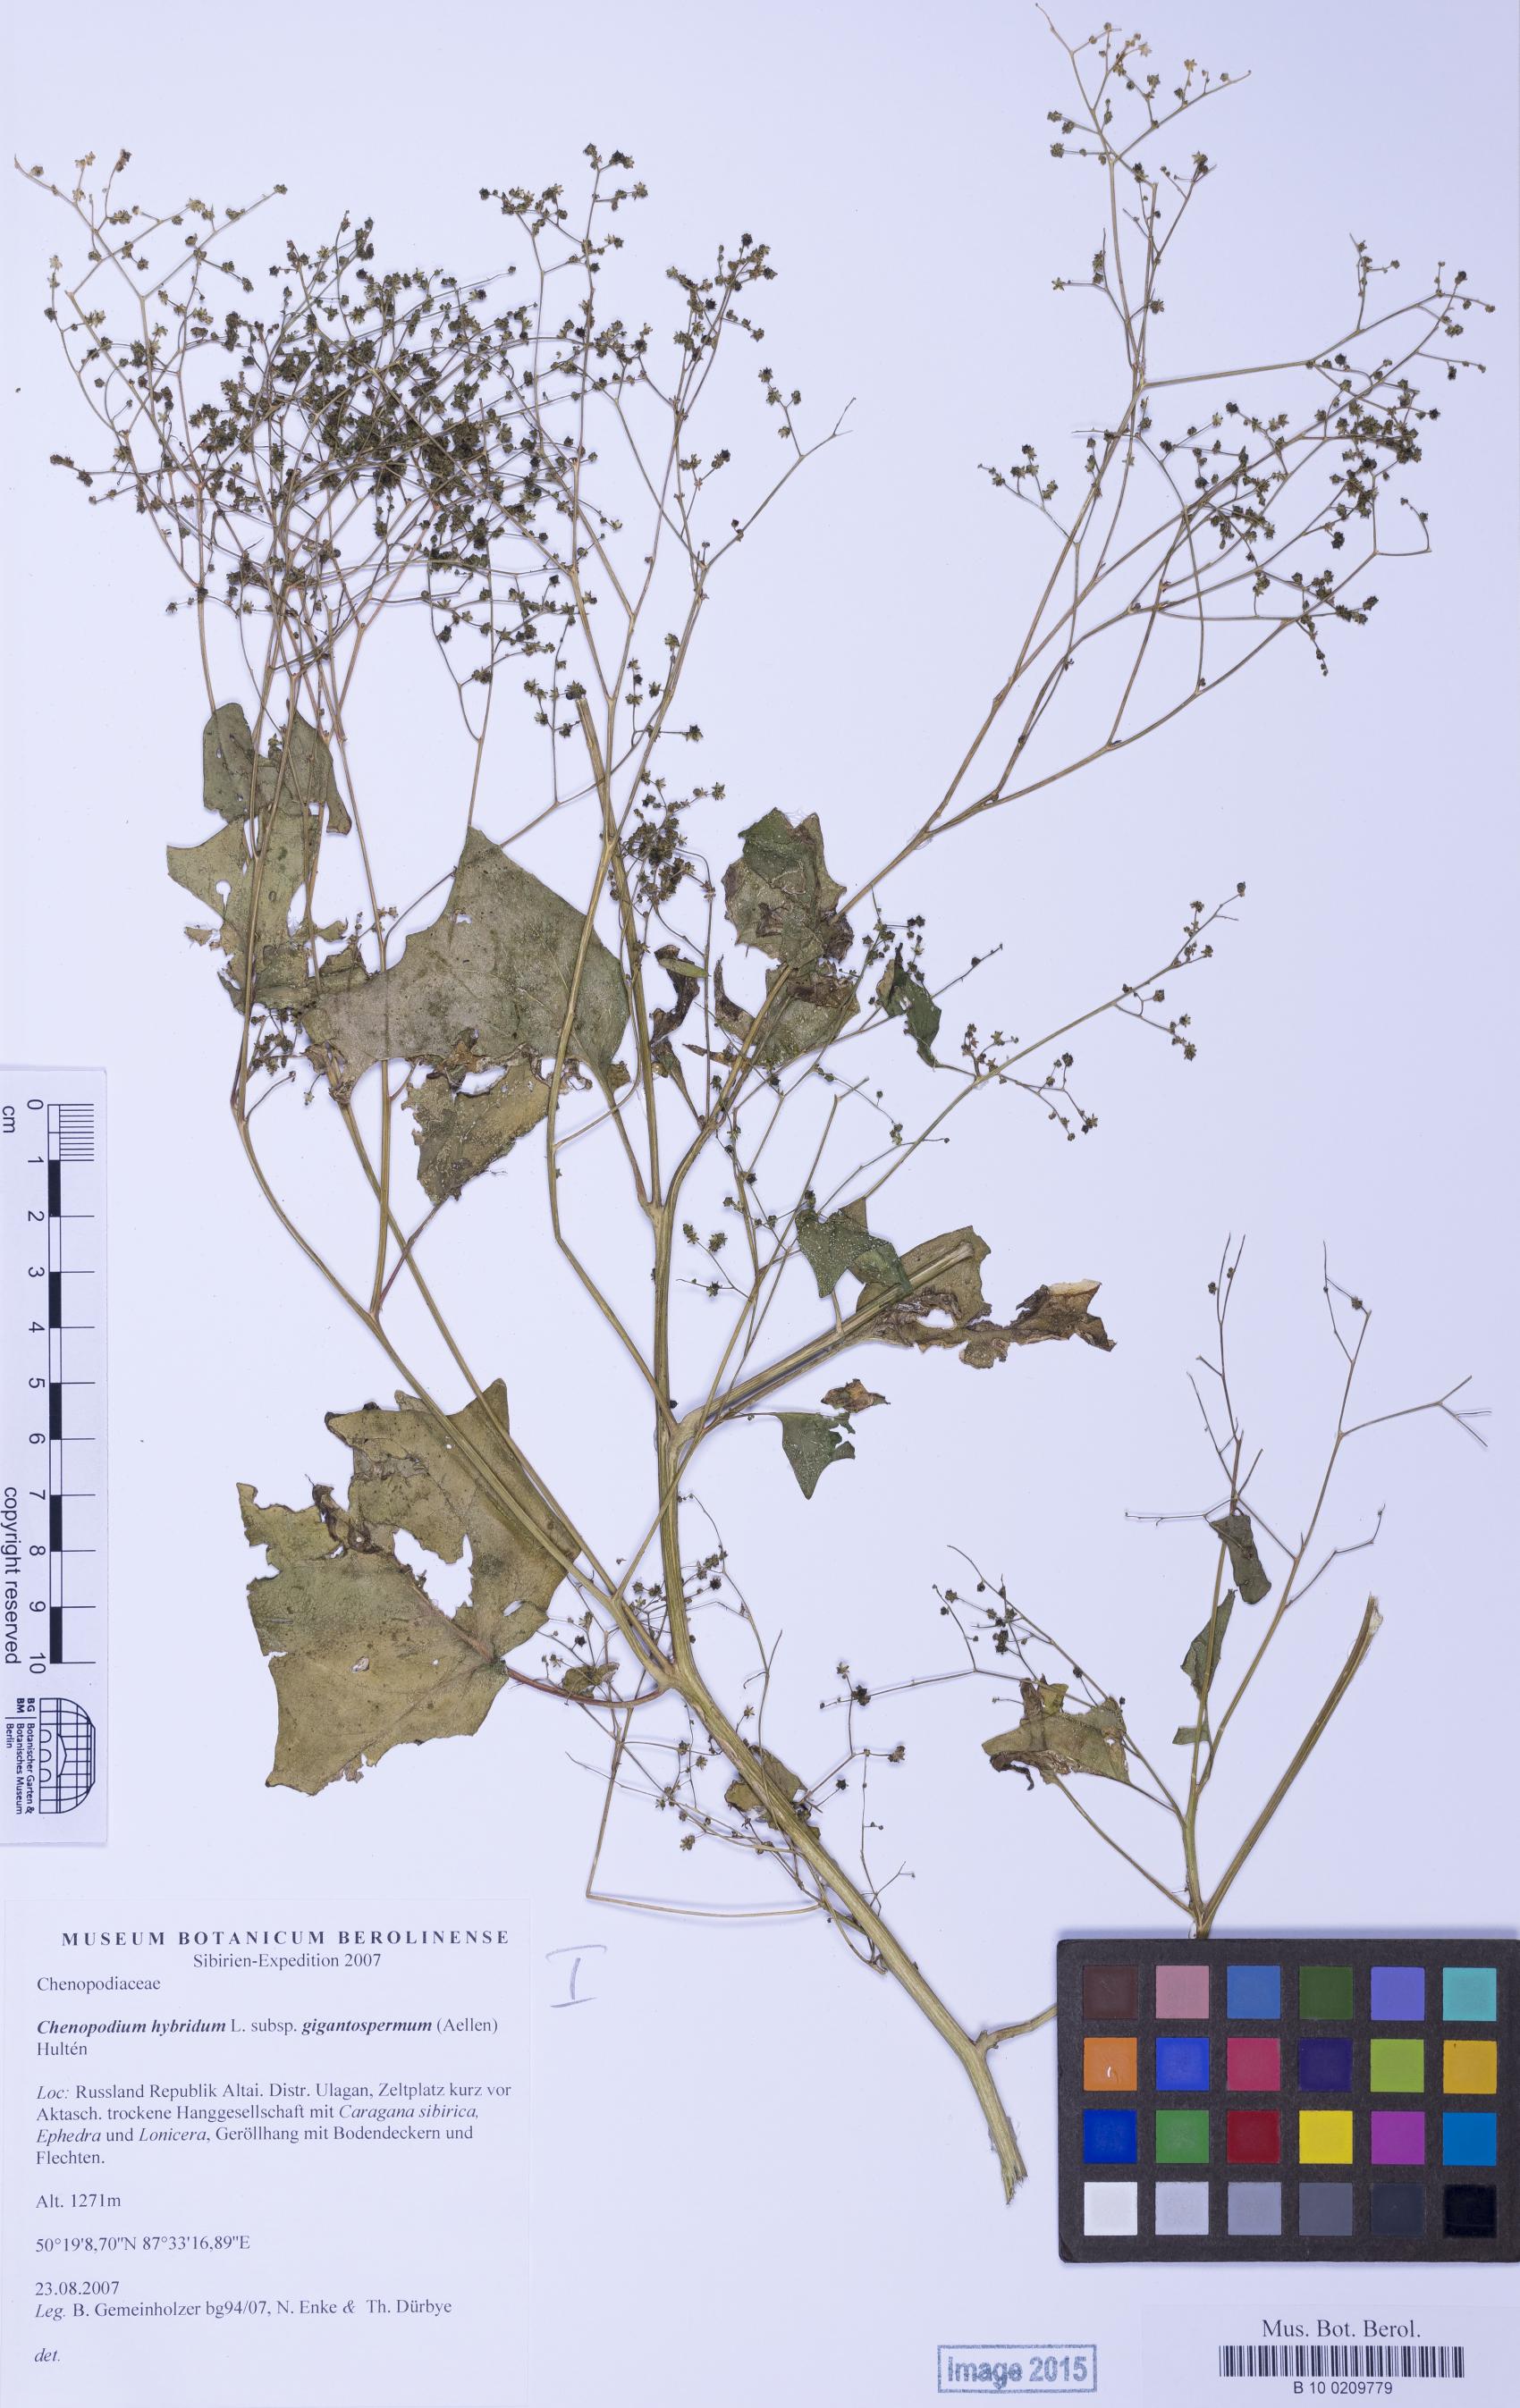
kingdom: Plantae
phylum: Tracheophyta
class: Magnoliopsida
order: Caryophyllales
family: Amaranthaceae
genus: Chenopodiastrum
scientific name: Chenopodiastrum simplex
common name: Large-seed goosefoot
